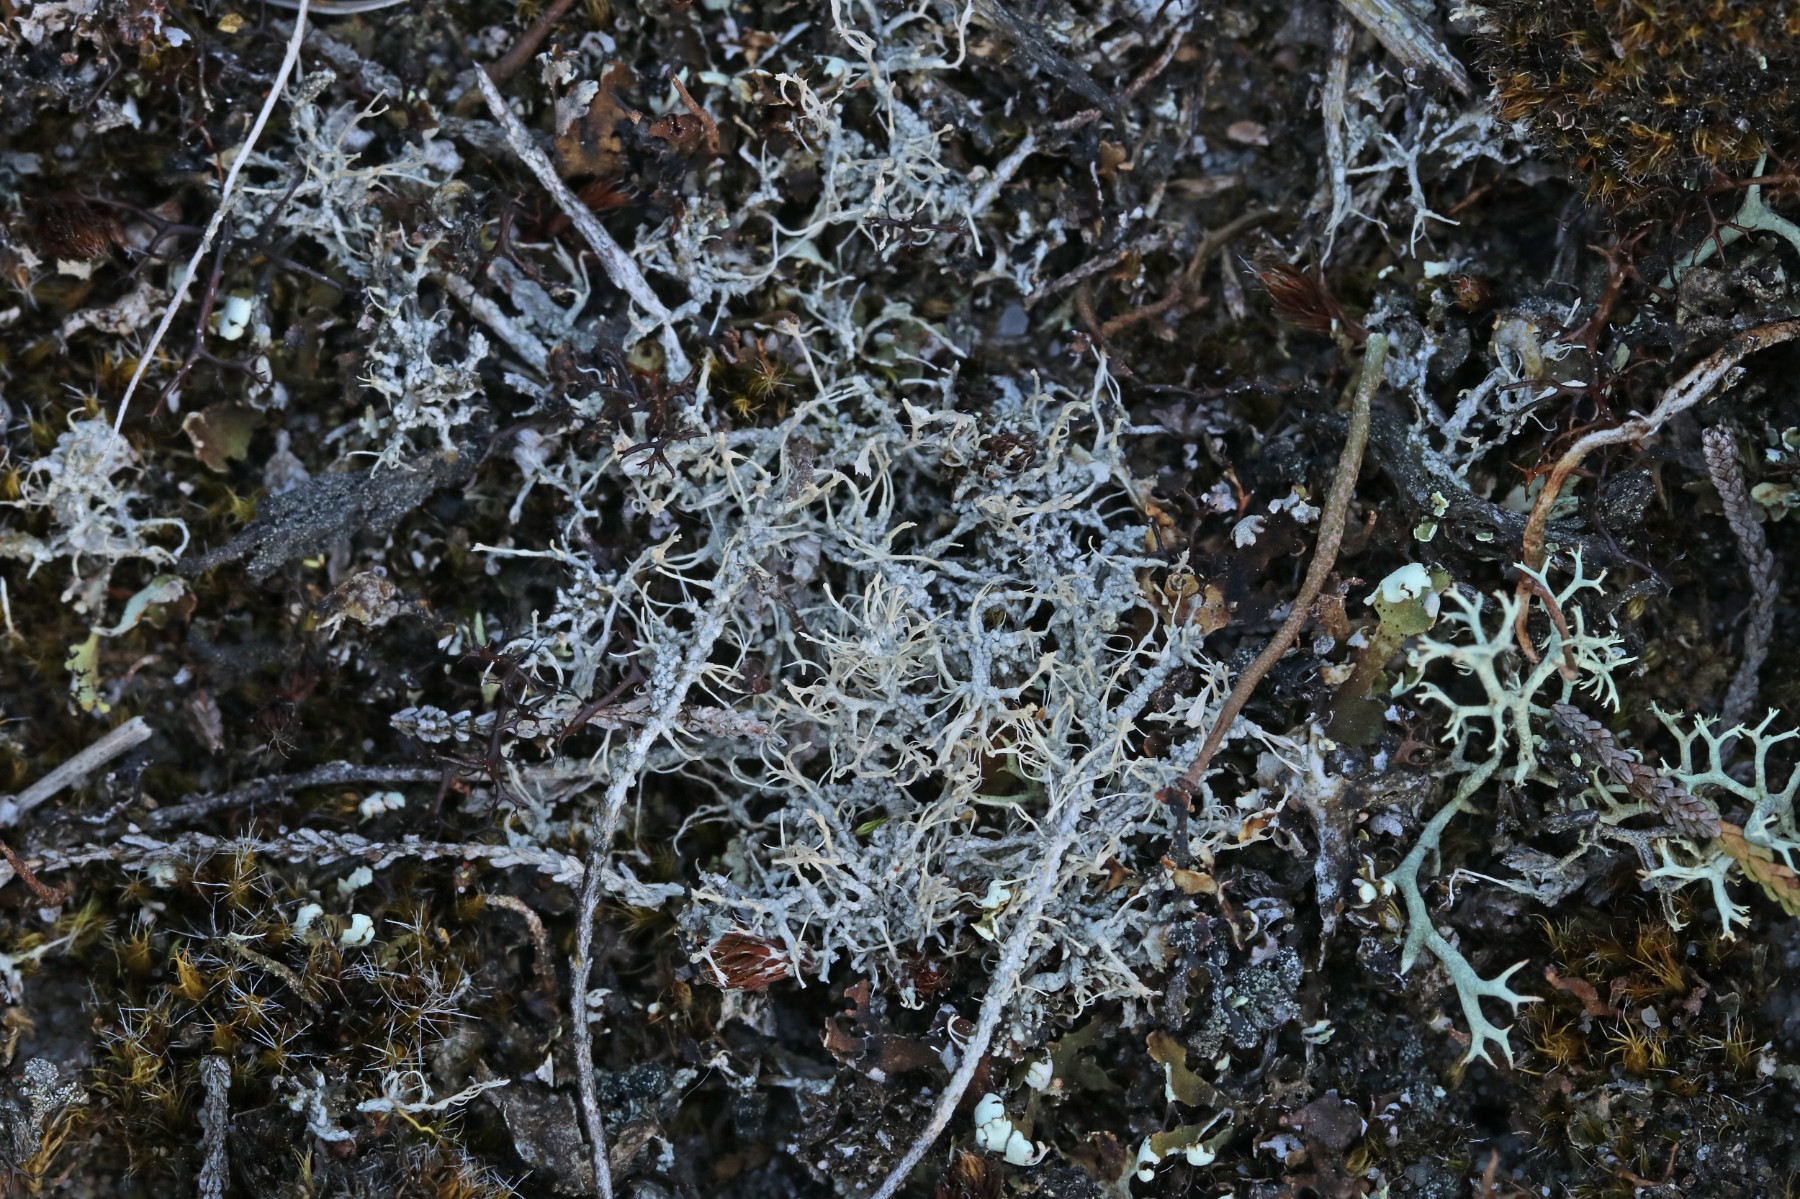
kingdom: Fungi
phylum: Ascomycota
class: Lecanoromycetes
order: Pertusariales
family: Ochrolechiaceae
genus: Ochrolechia
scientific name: Ochrolechia frigida
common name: fjeld-blegskivelav
